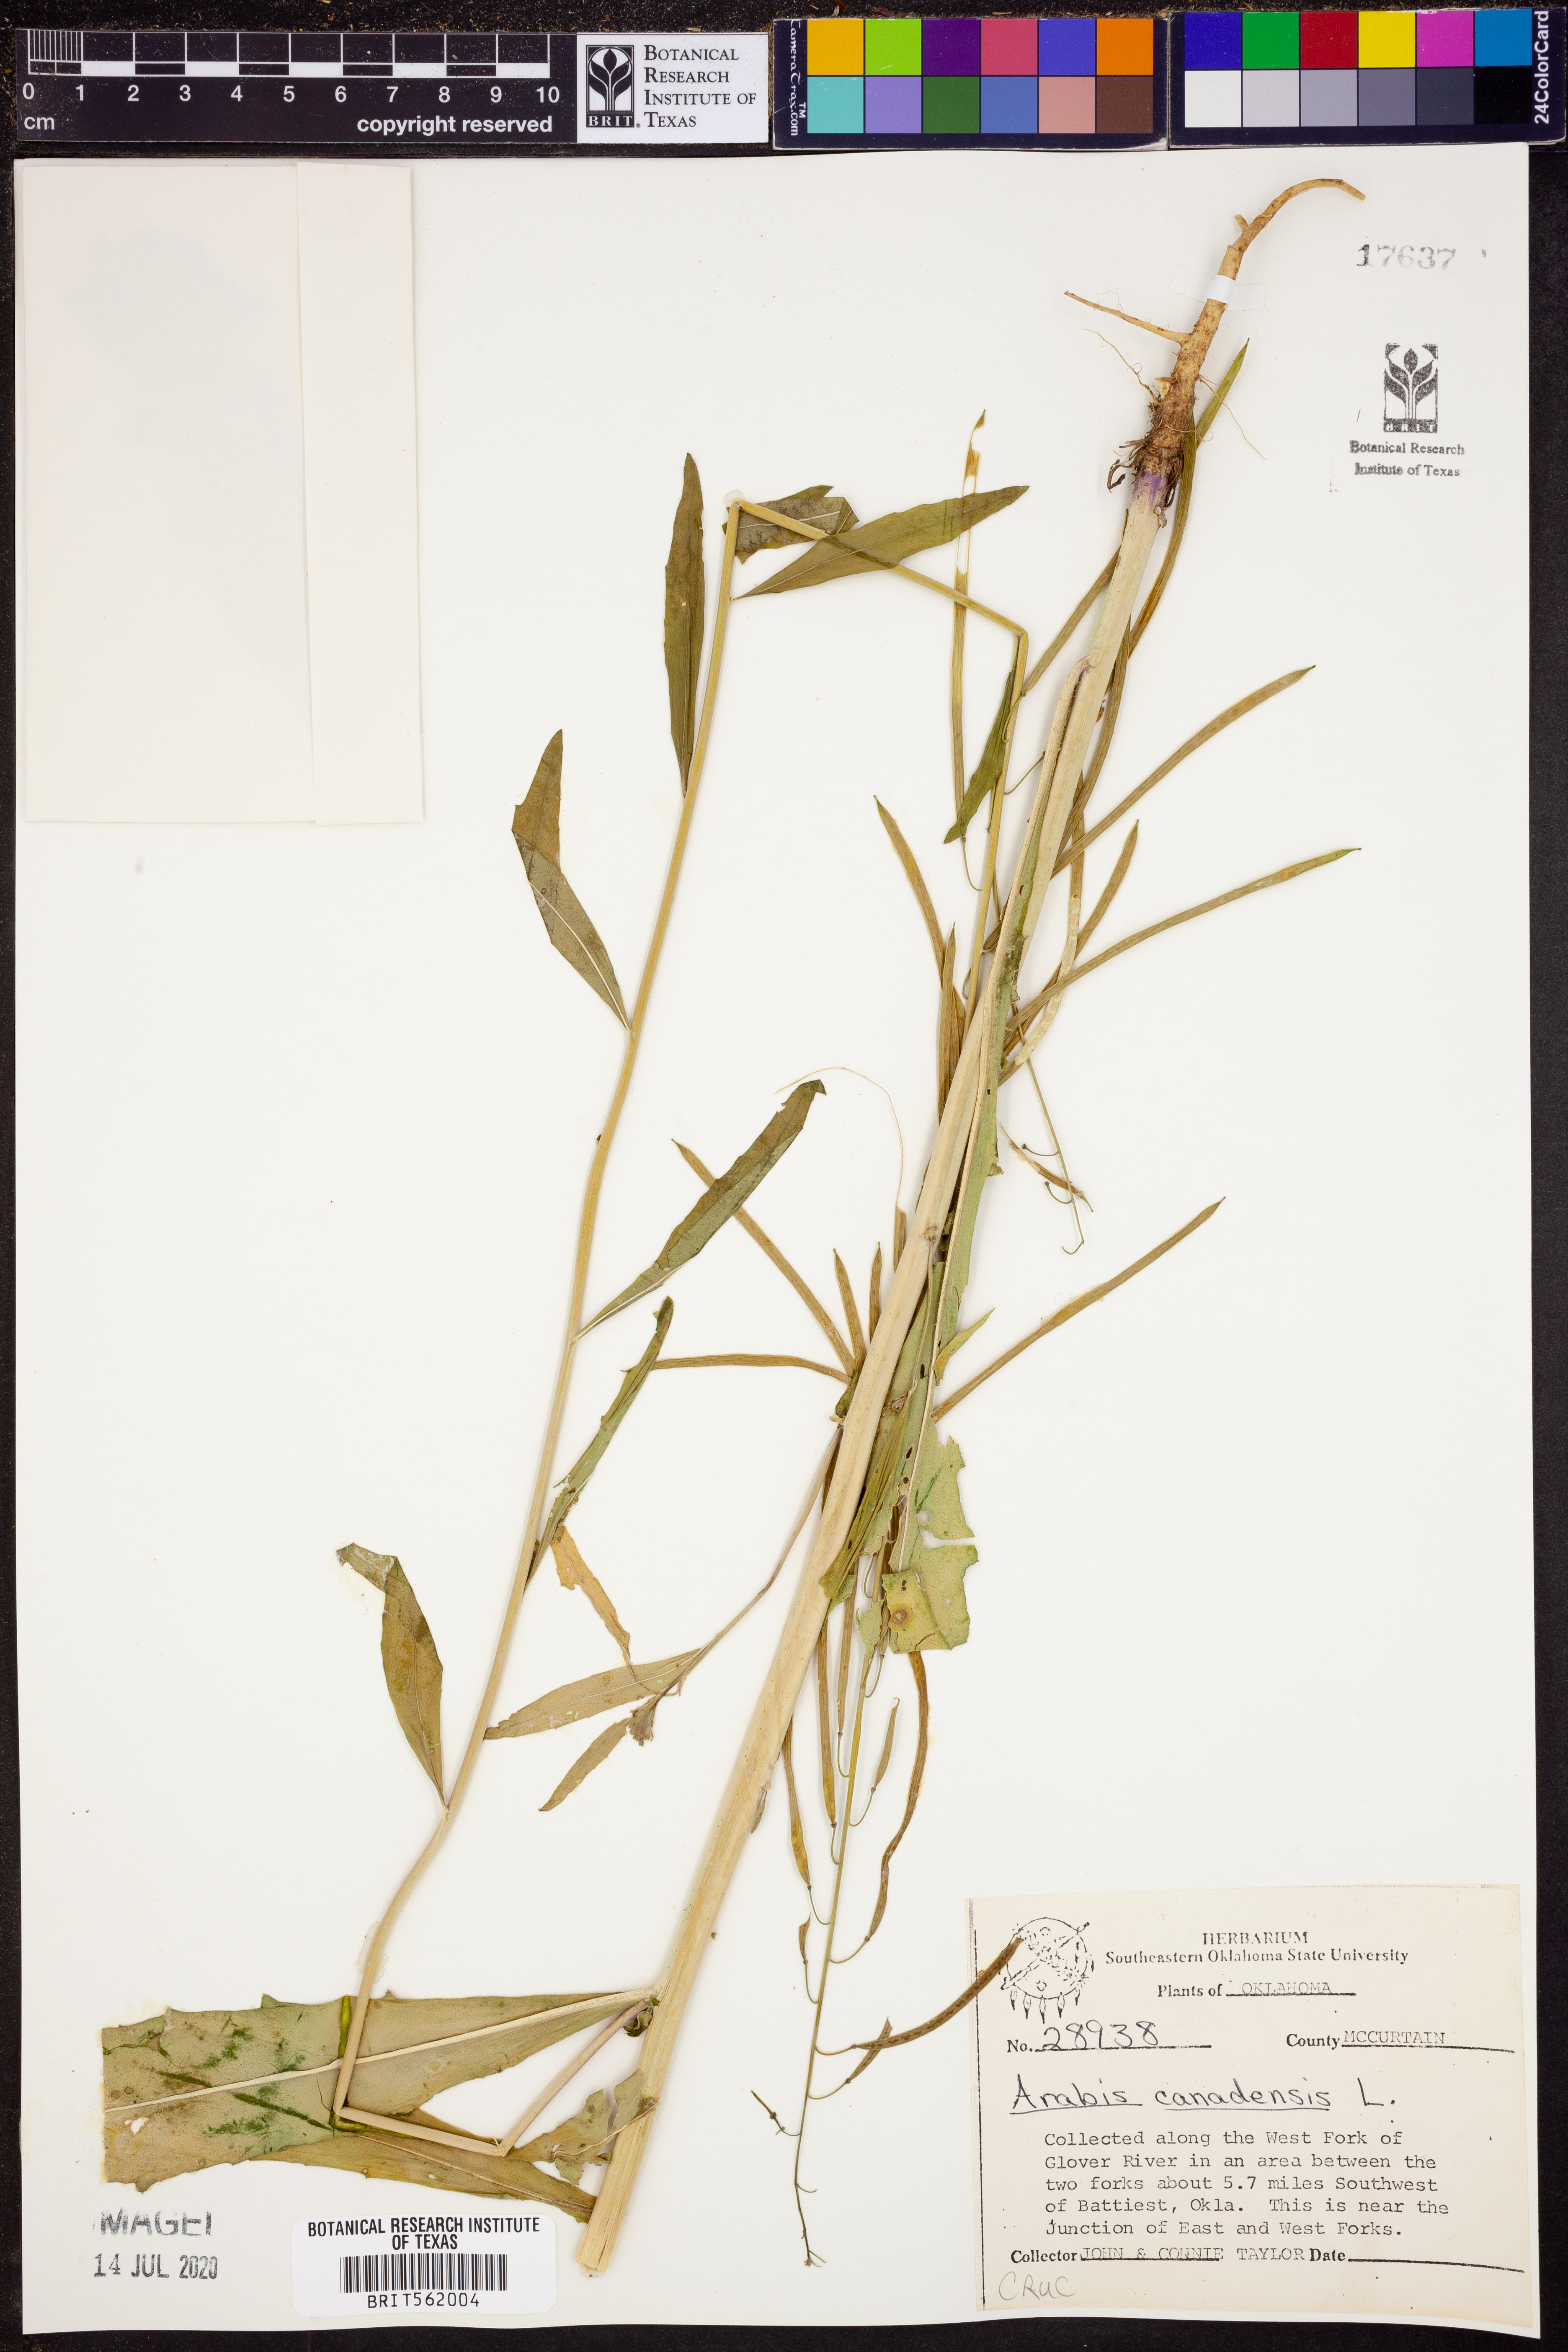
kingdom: Plantae
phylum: Tracheophyta
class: Magnoliopsida
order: Brassicales
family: Brassicaceae
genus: Borodinia
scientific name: Borodinia canadensis
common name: Sicklepod
